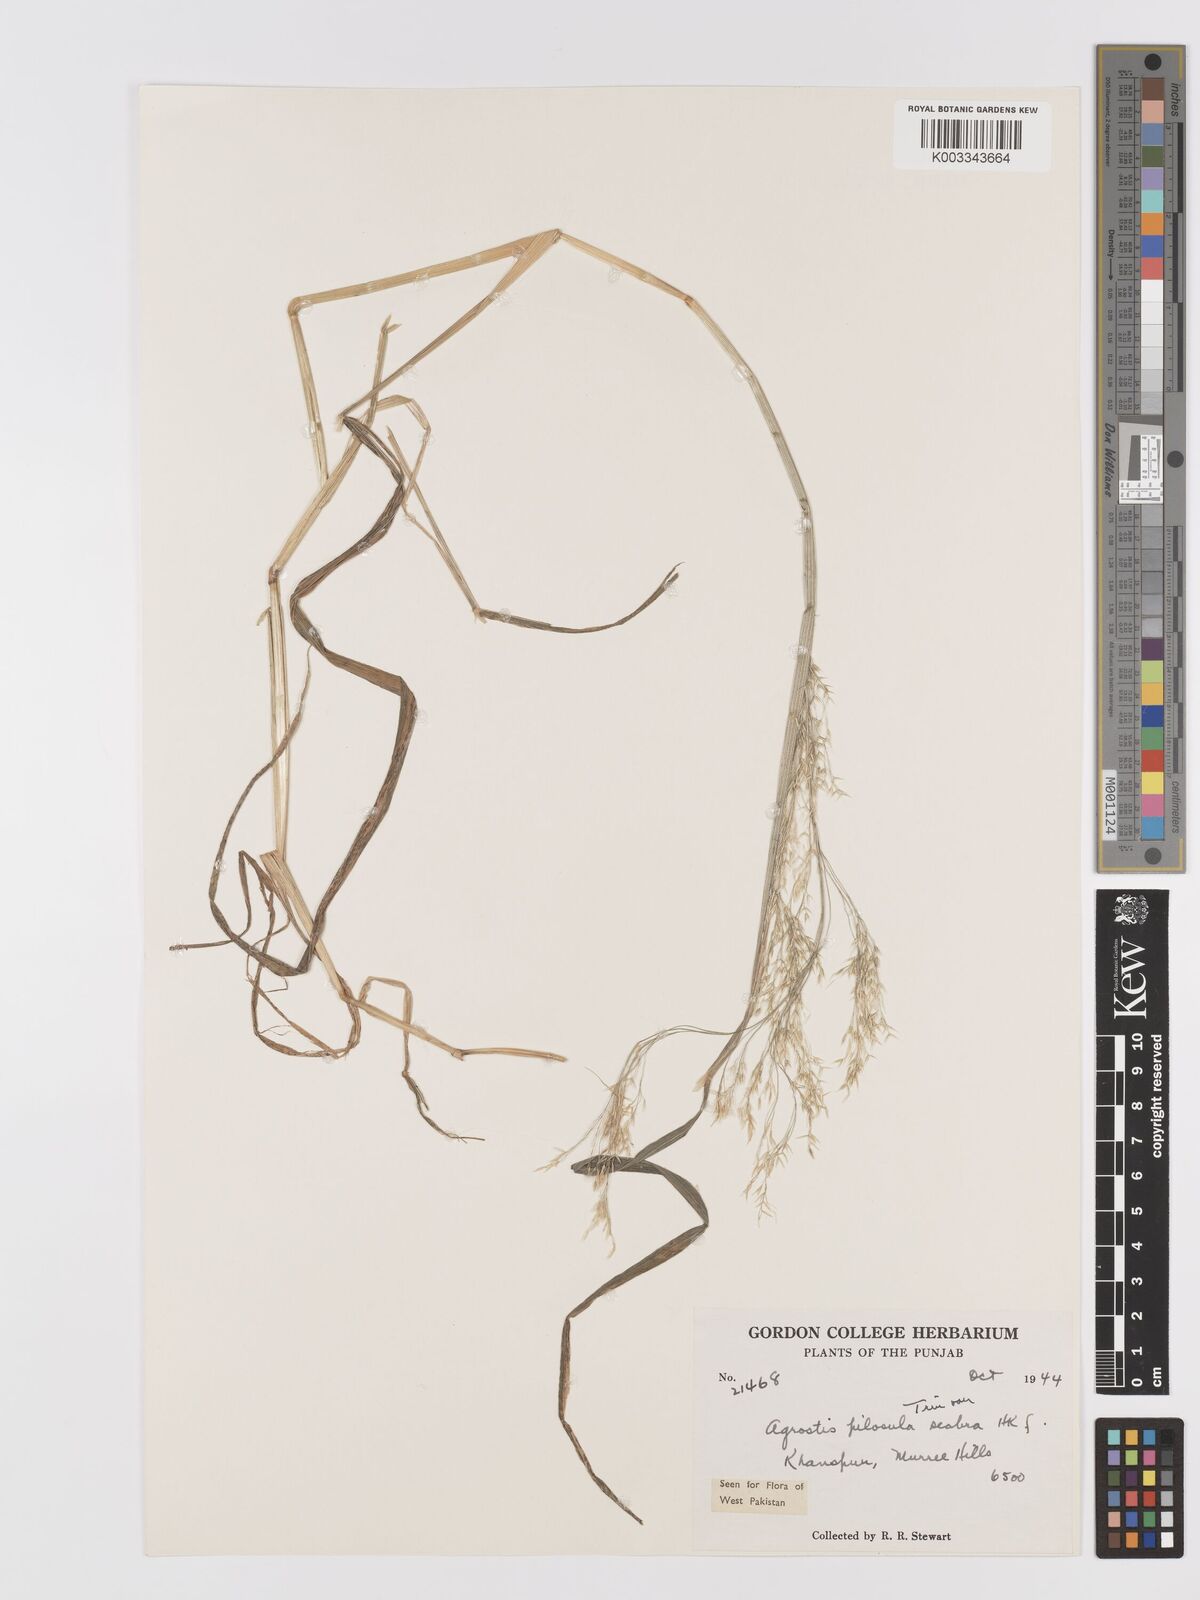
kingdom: Plantae
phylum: Tracheophyta
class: Liliopsida
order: Poales
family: Poaceae
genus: Agrostis
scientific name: Agrostis pilosula
